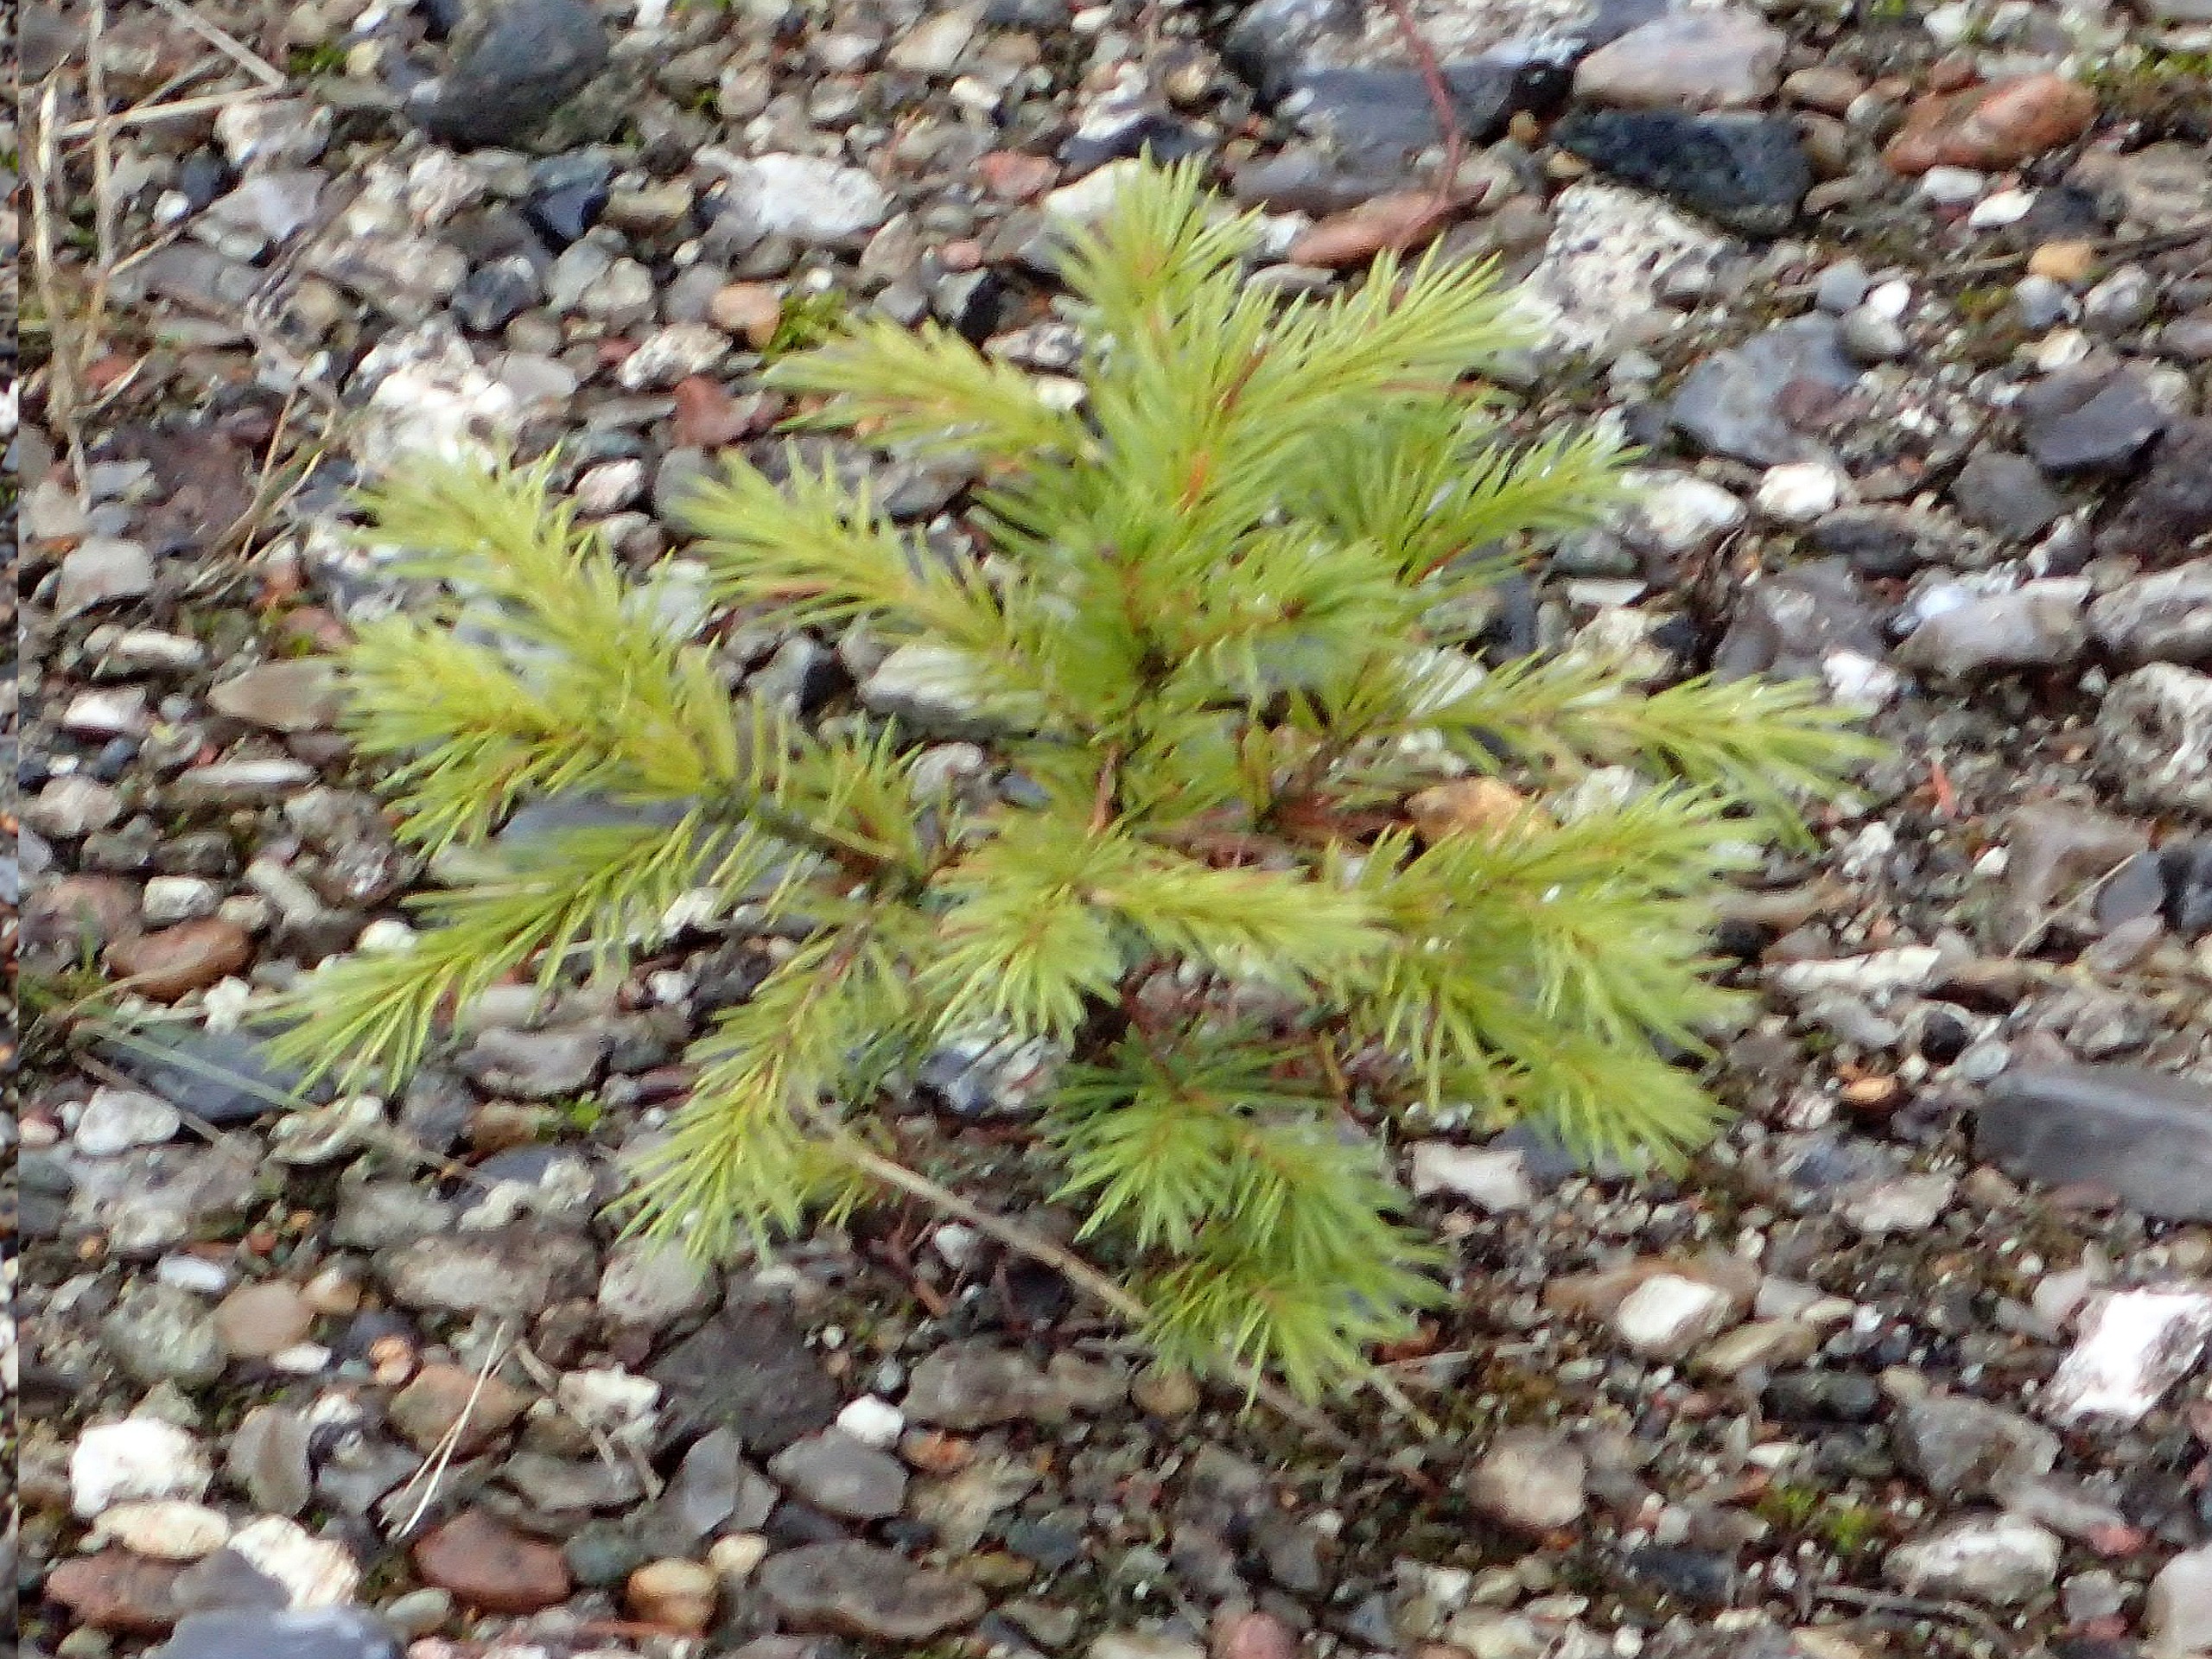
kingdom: Plantae
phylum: Tracheophyta
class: Pinopsida
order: Pinales
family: Pinaceae
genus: Picea
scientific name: Picea abies
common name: Rød-gran
